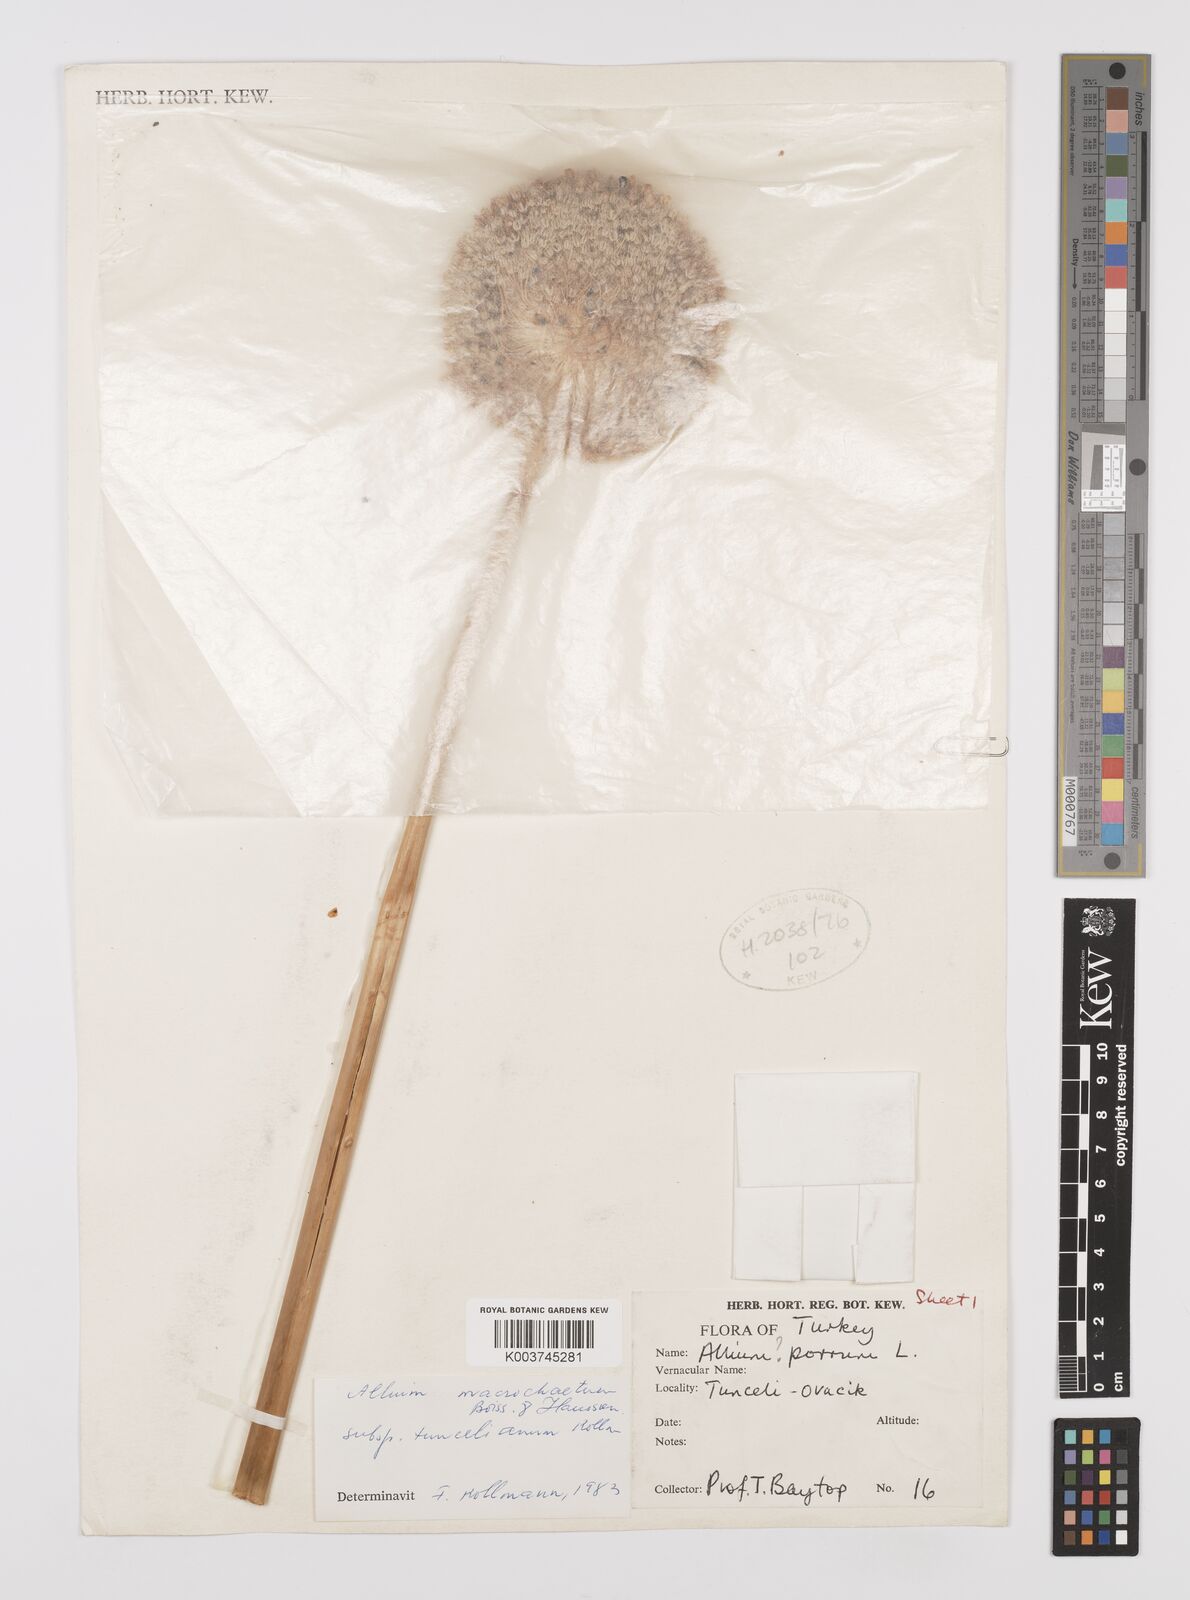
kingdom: Plantae
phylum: Tracheophyta
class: Liliopsida
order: Asparagales
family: Amaryllidaceae
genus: Allium
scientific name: Allium tuncelianum
